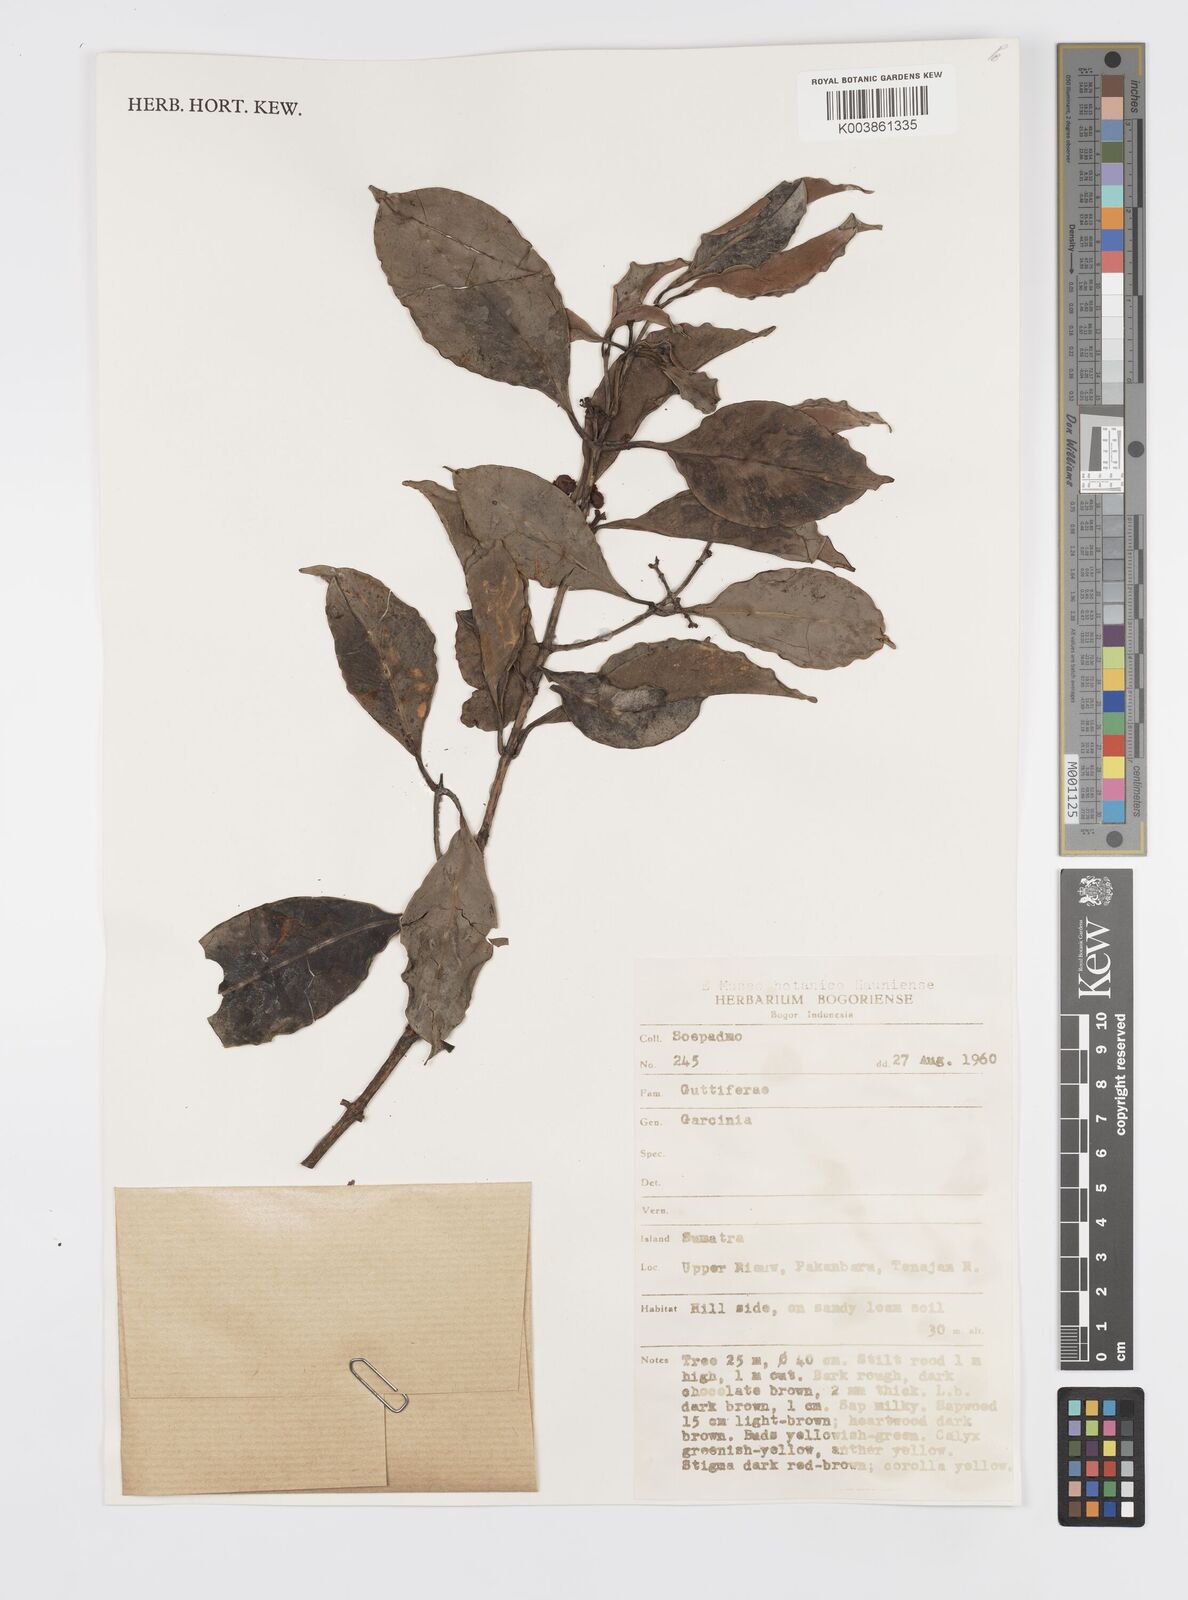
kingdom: Plantae
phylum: Tracheophyta
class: Magnoliopsida
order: Malpighiales
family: Clusiaceae
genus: Garcinia
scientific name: Garcinia
